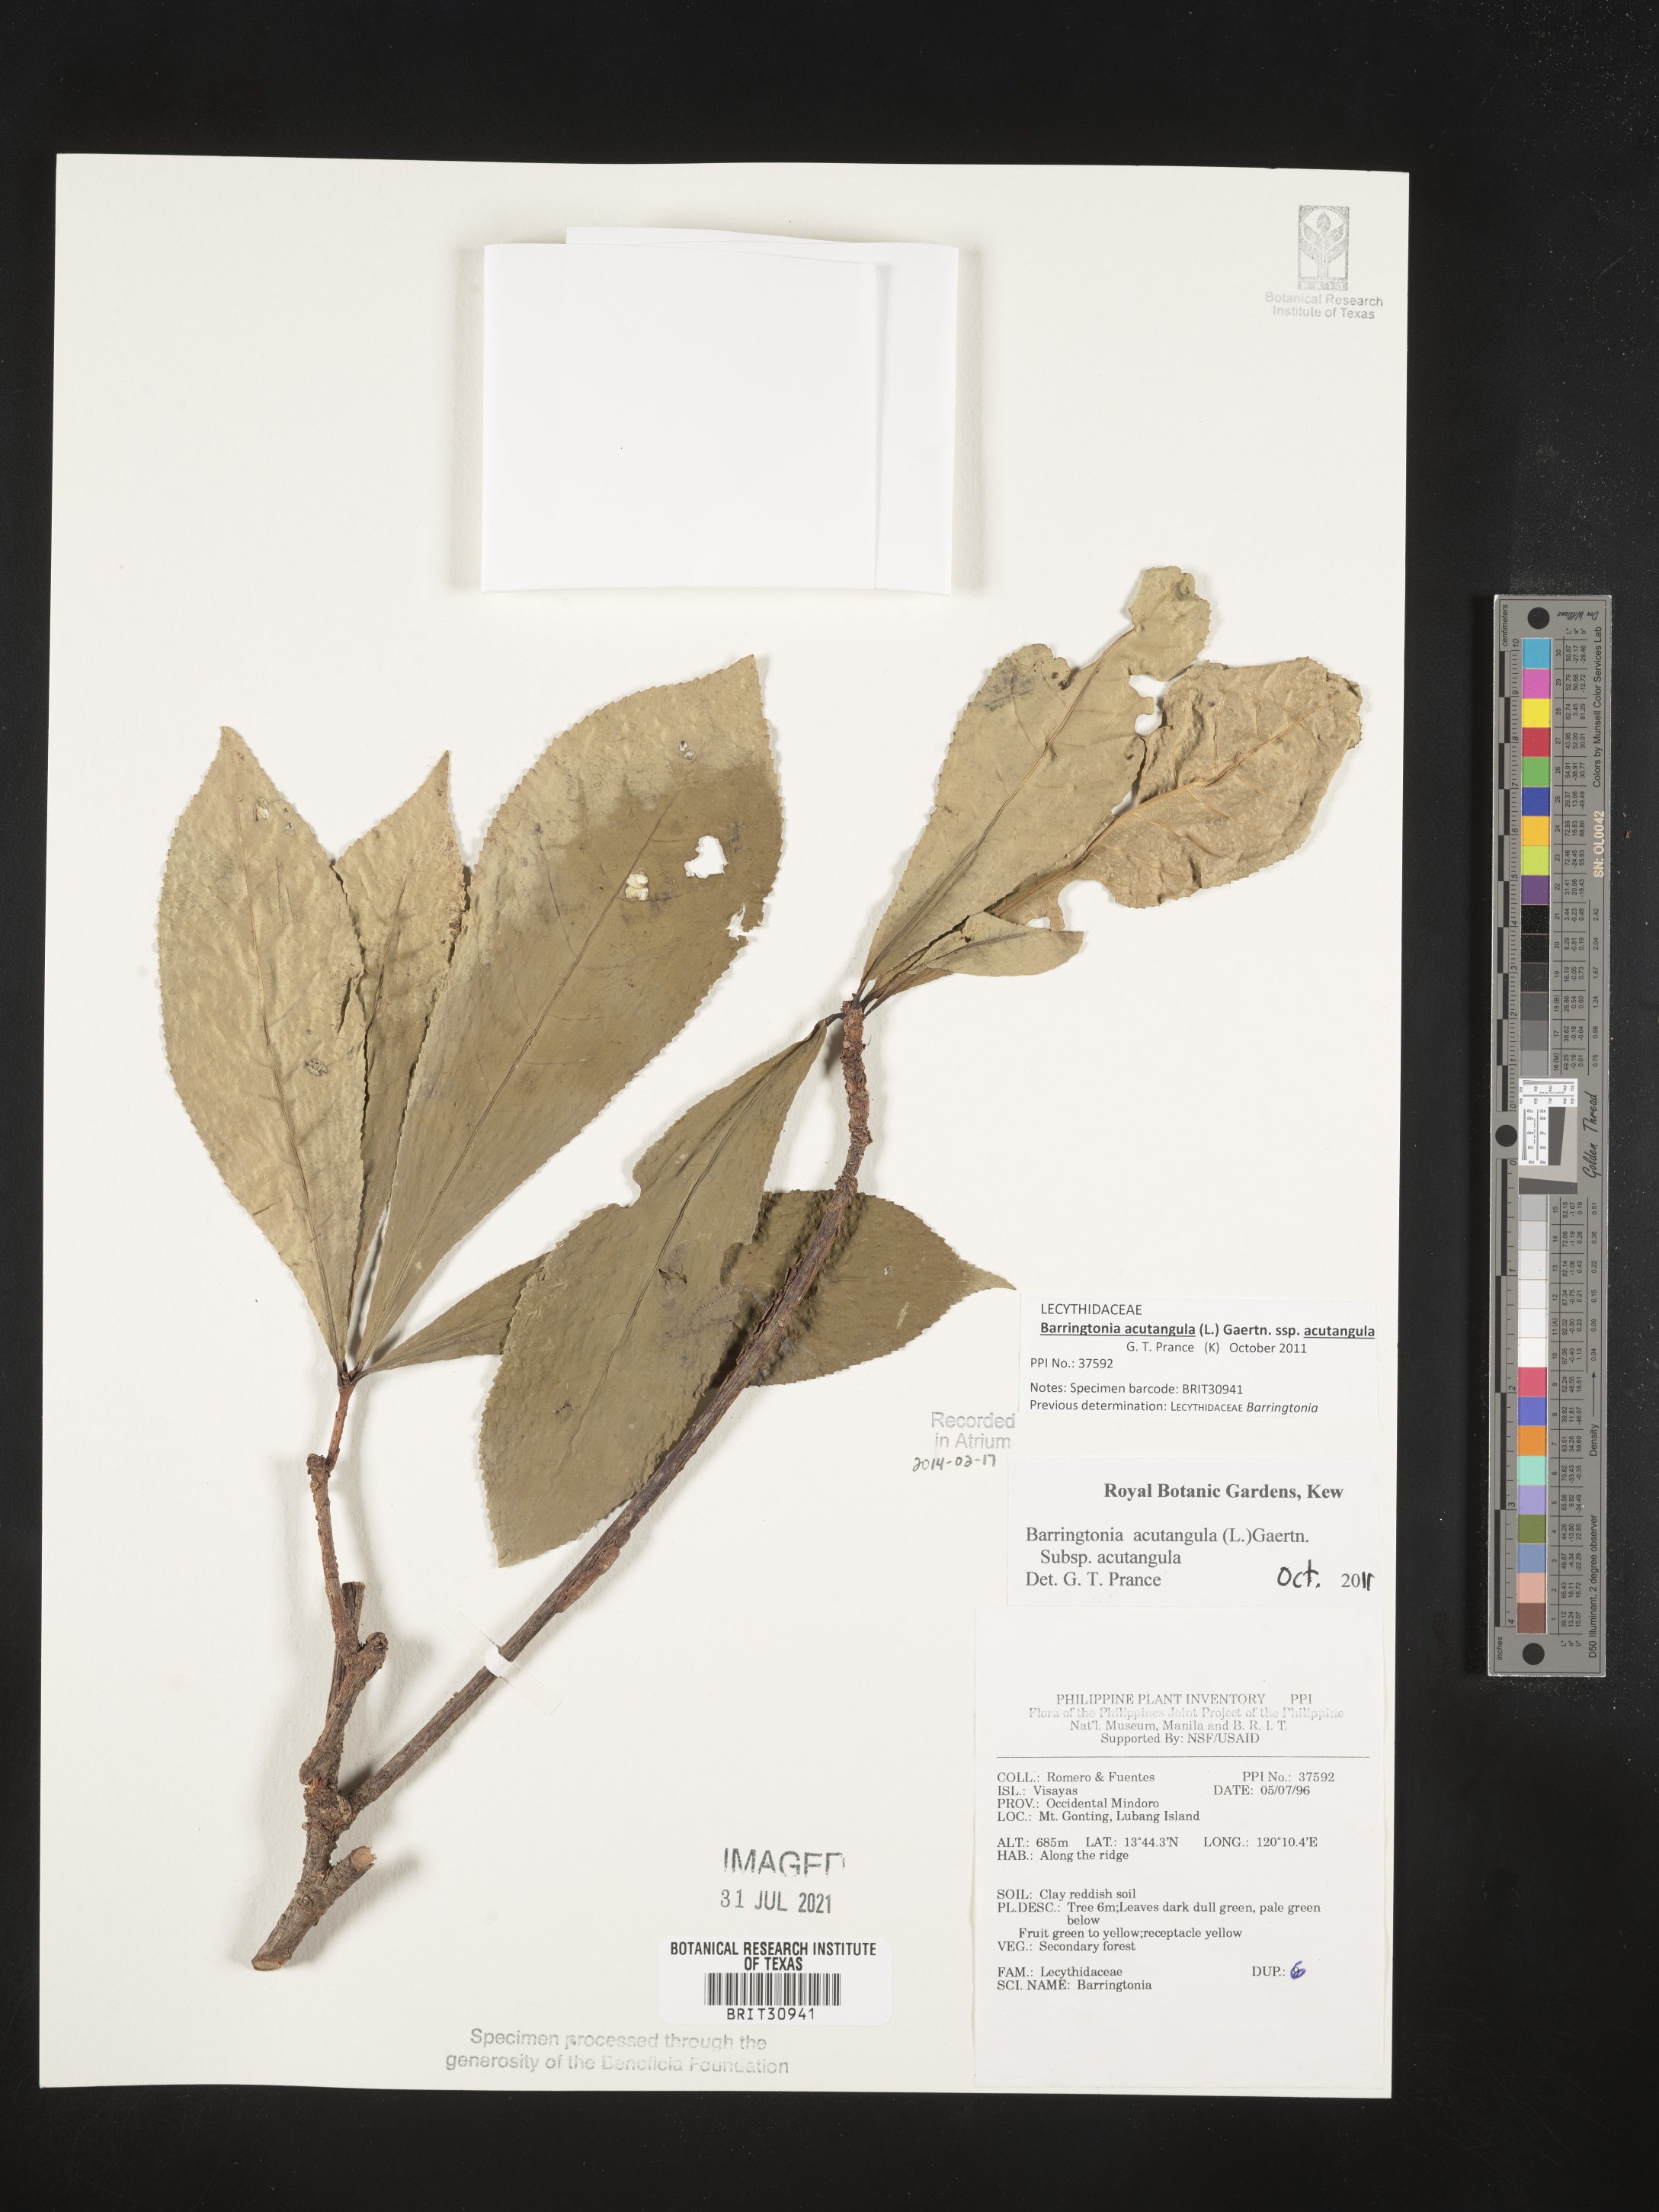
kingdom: Plantae
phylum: Tracheophyta
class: Magnoliopsida
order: Ericales
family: Lecythidaceae
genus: Barringtonia
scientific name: Barringtonia
